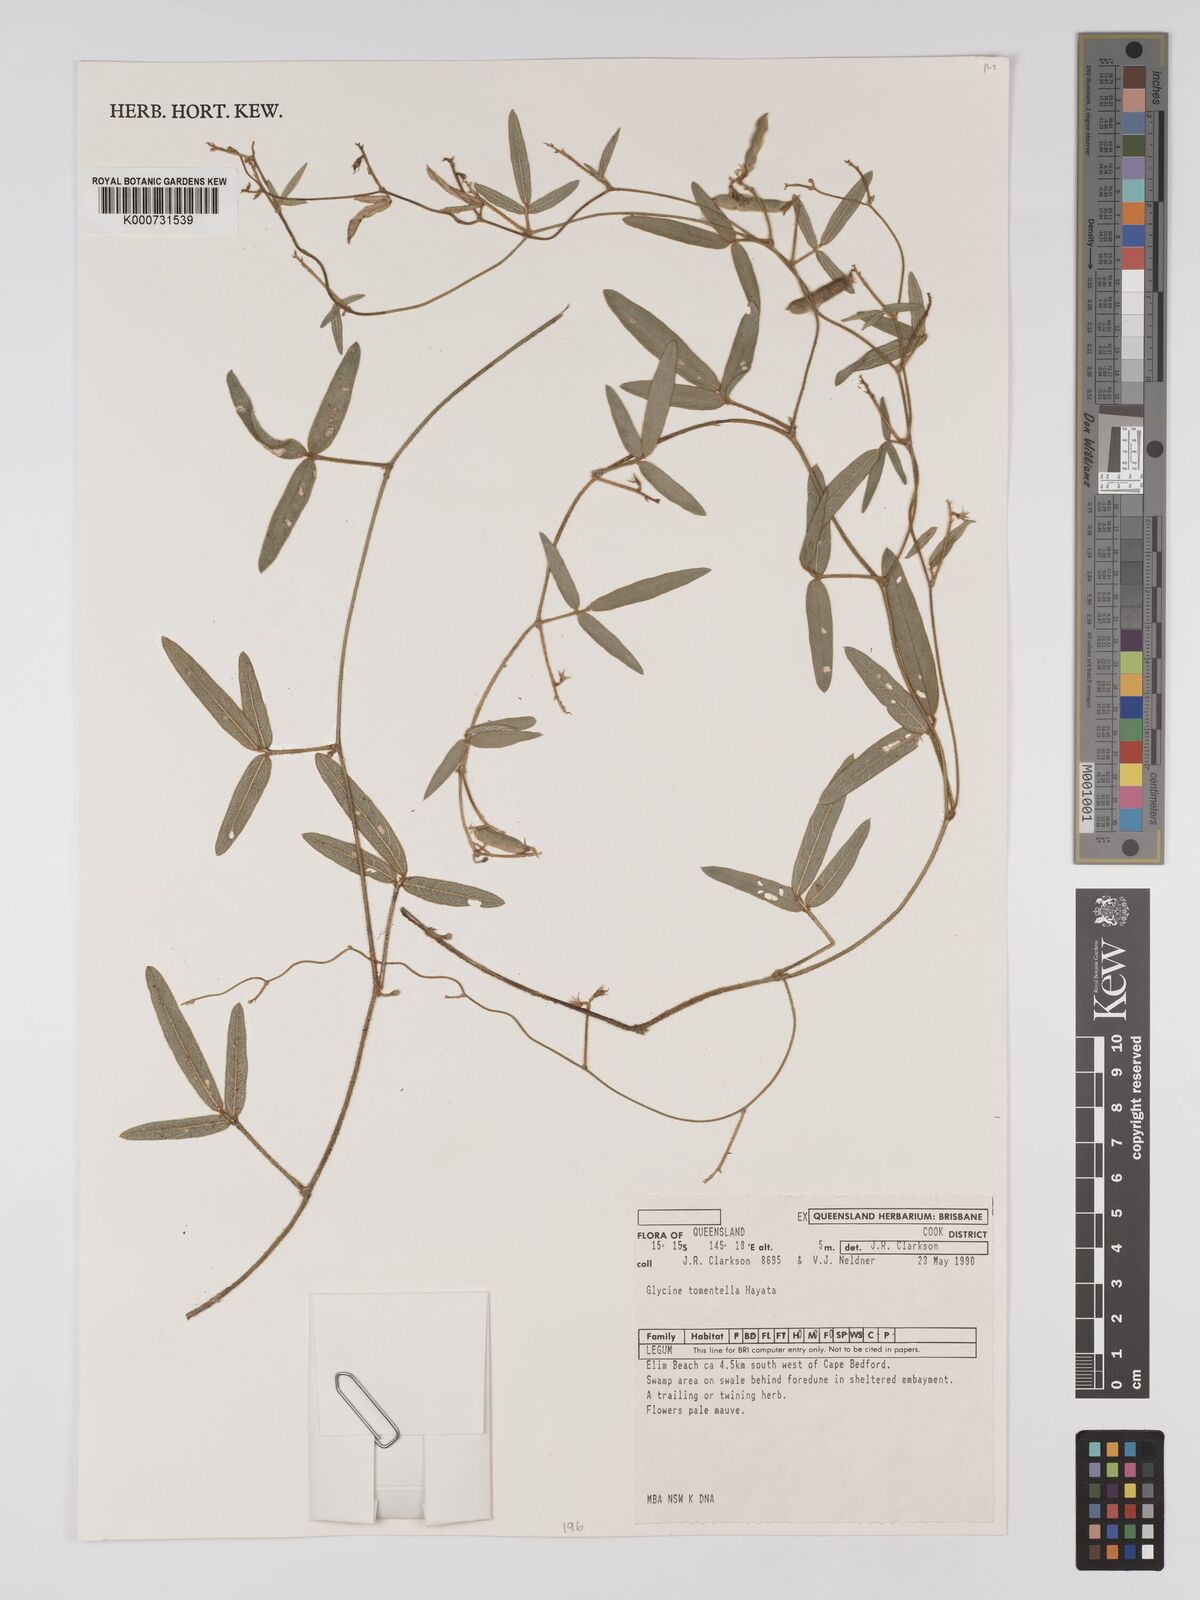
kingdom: Plantae
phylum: Tracheophyta
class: Magnoliopsida
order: Fabales
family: Fabaceae
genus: Glycine
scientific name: Glycine tomentella
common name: Hairy glycine
